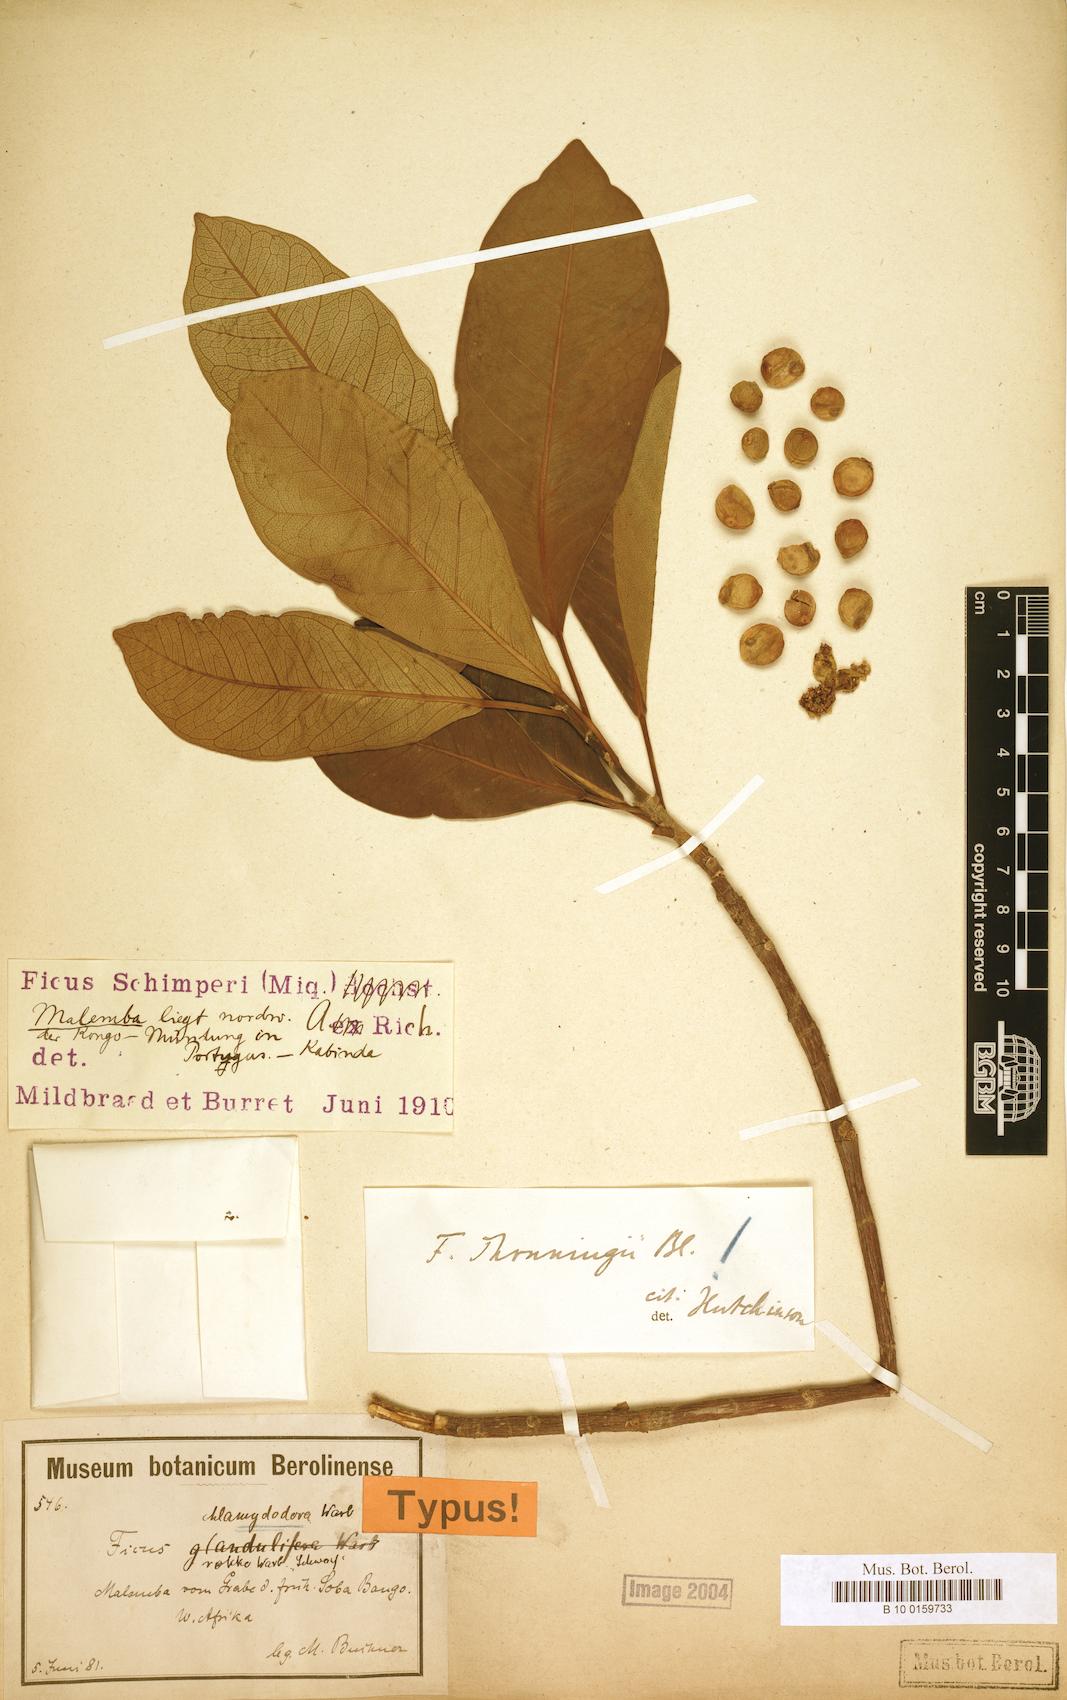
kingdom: Plantae
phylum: Tracheophyta
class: Magnoliopsida
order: Rosales
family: Moraceae
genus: Ficus
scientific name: Ficus thonningii
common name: Fig
